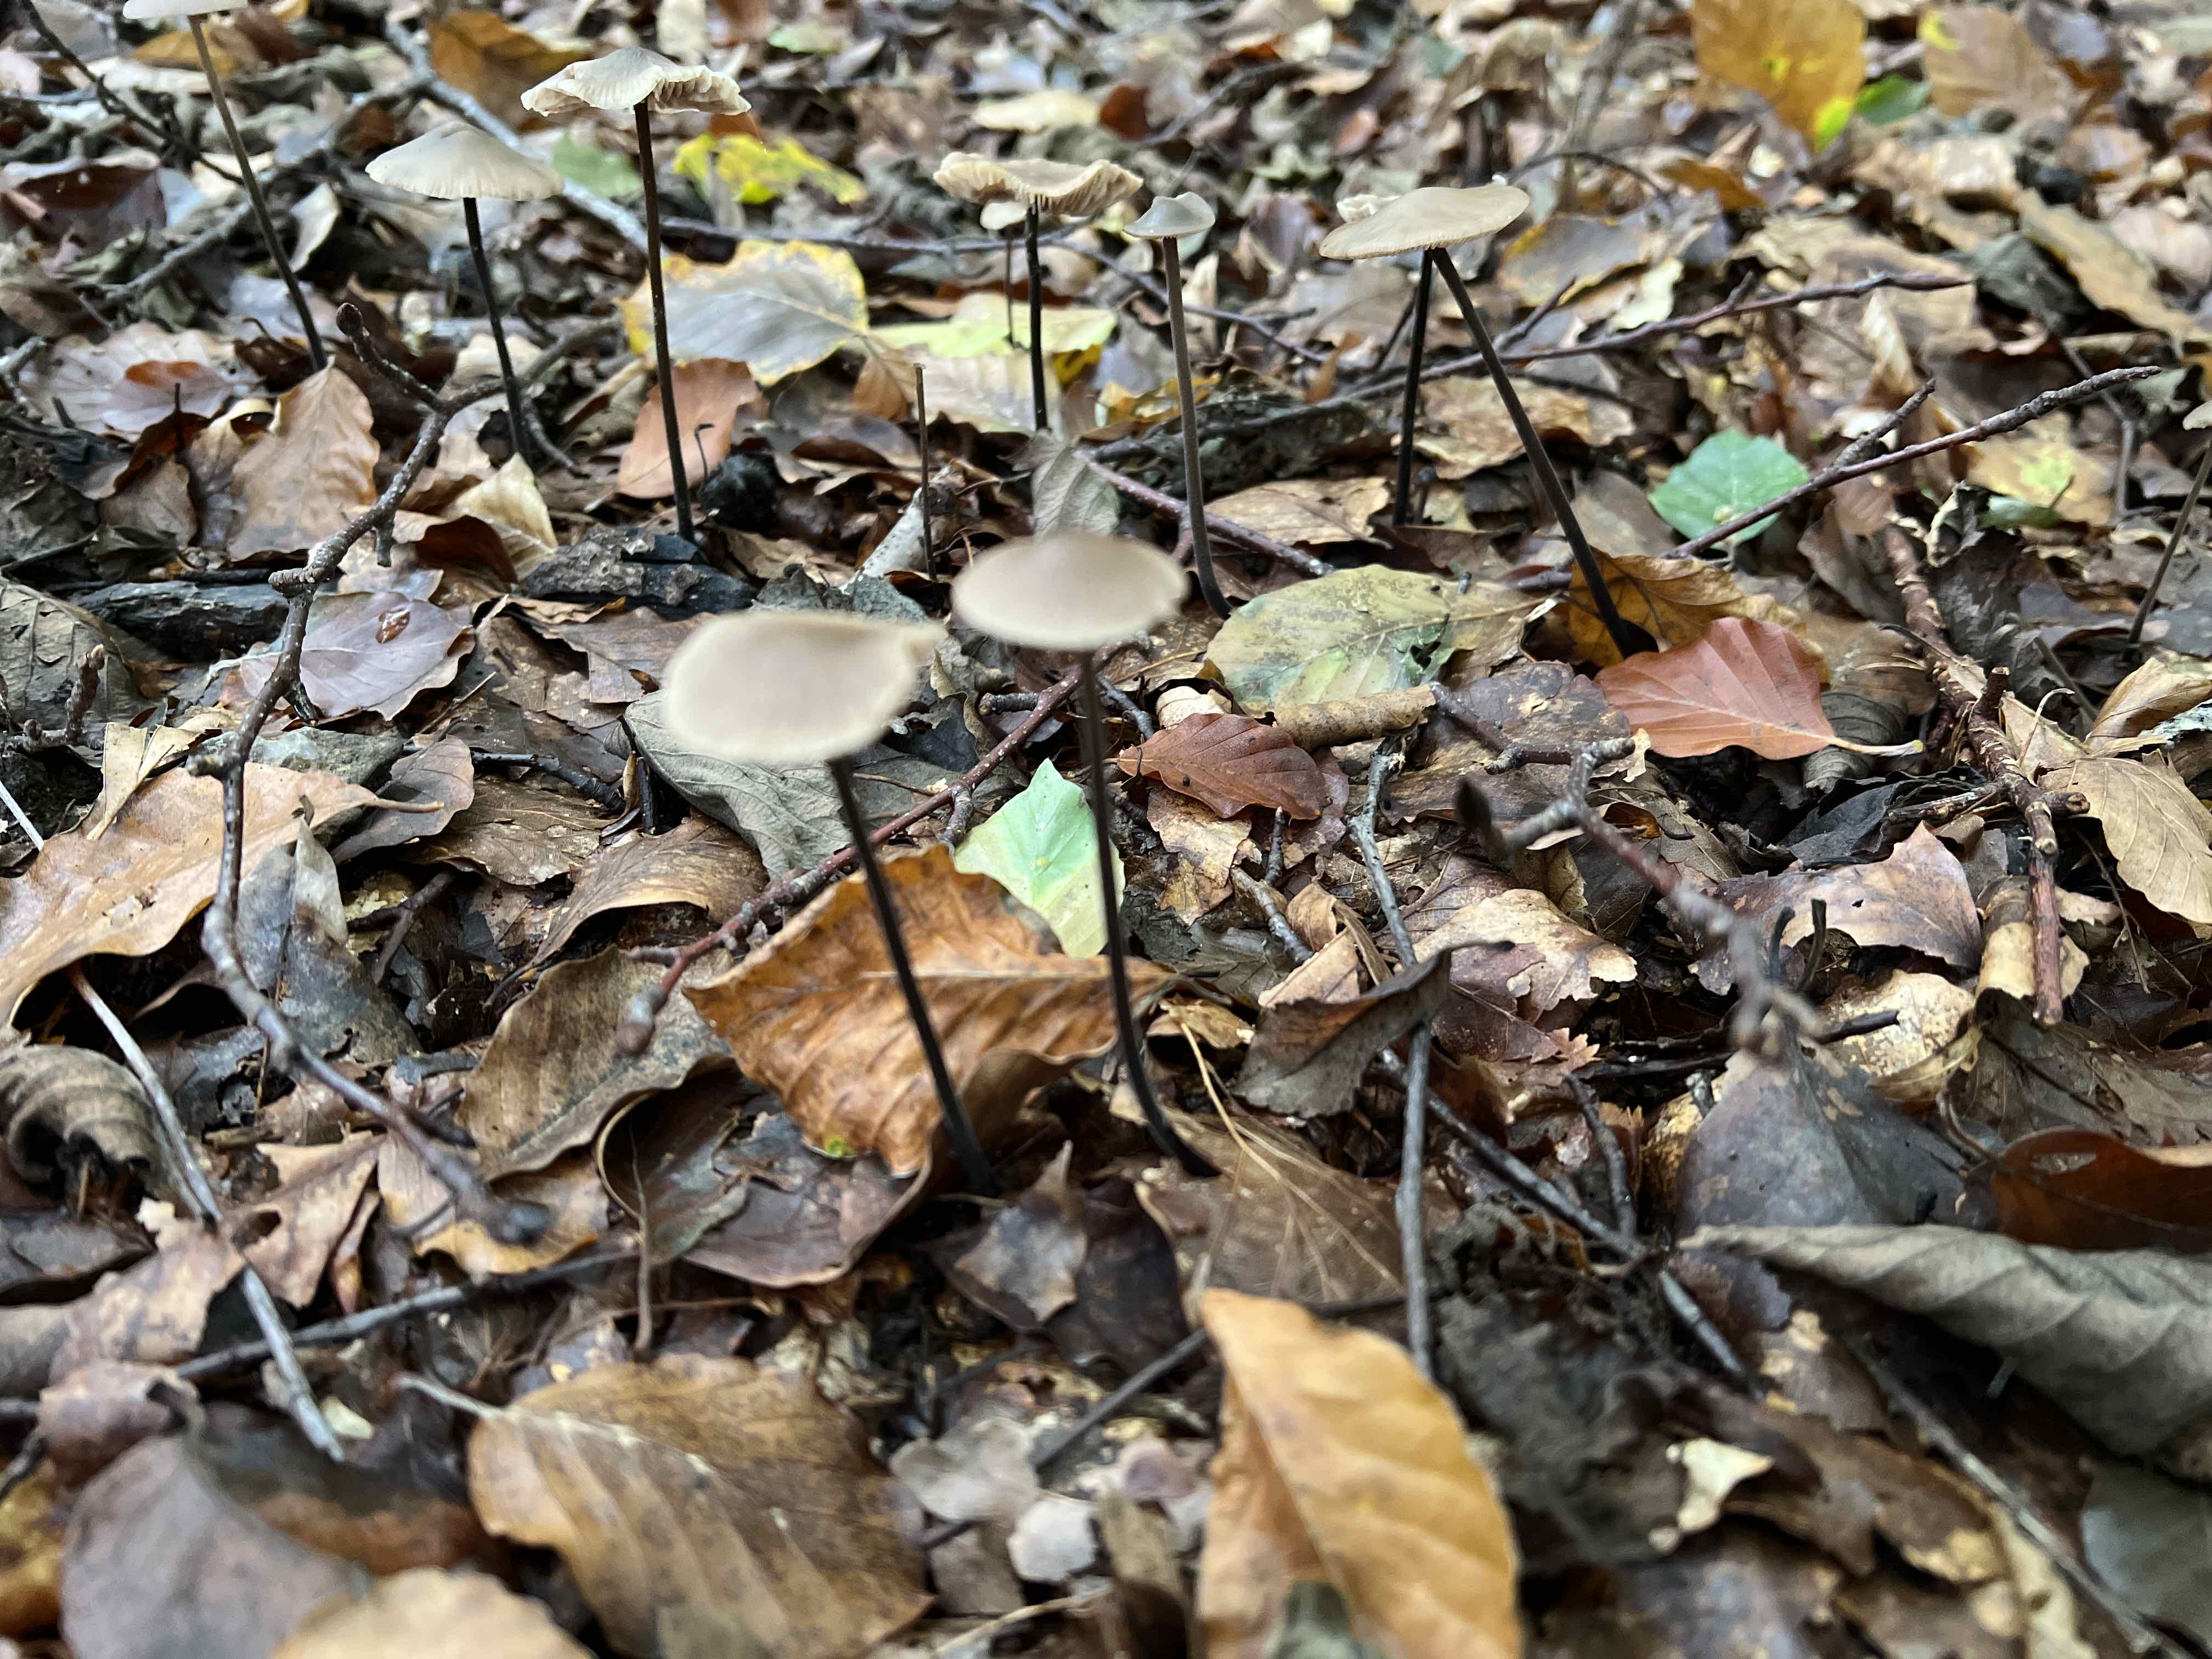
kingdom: Fungi
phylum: Basidiomycota
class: Agaricomycetes
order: Agaricales
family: Omphalotaceae
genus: Mycetinis
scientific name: Mycetinis alliaceus
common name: stor løghat
